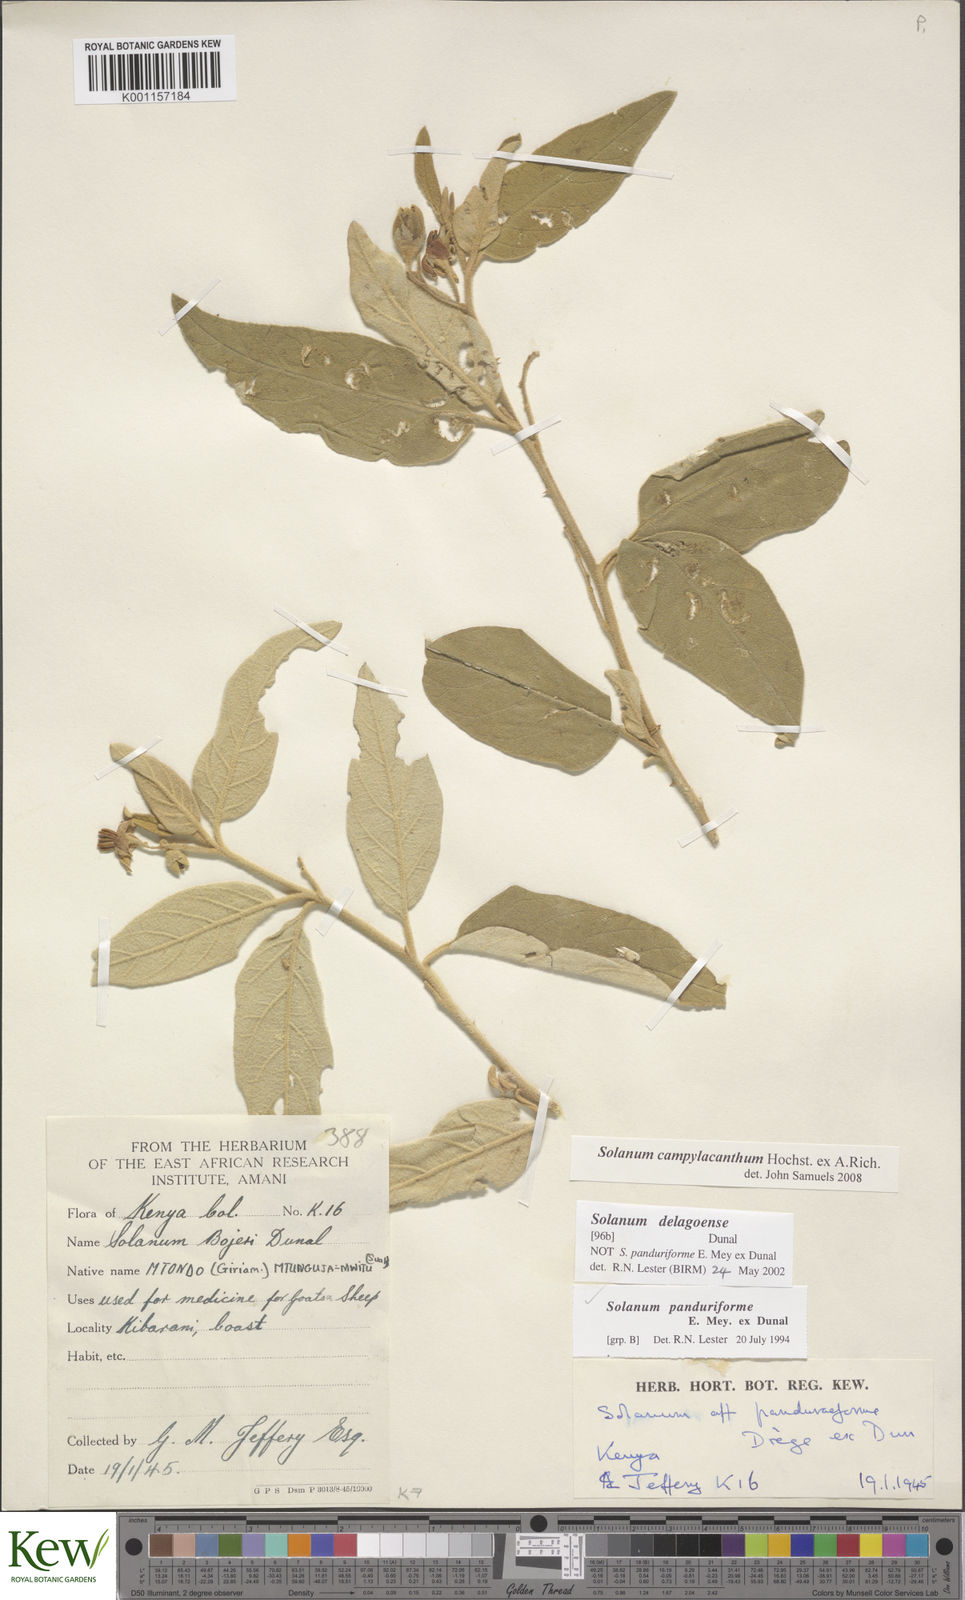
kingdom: Plantae
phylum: Tracheophyta
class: Magnoliopsida
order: Solanales
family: Solanaceae
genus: Solanum
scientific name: Solanum campylacanthum
